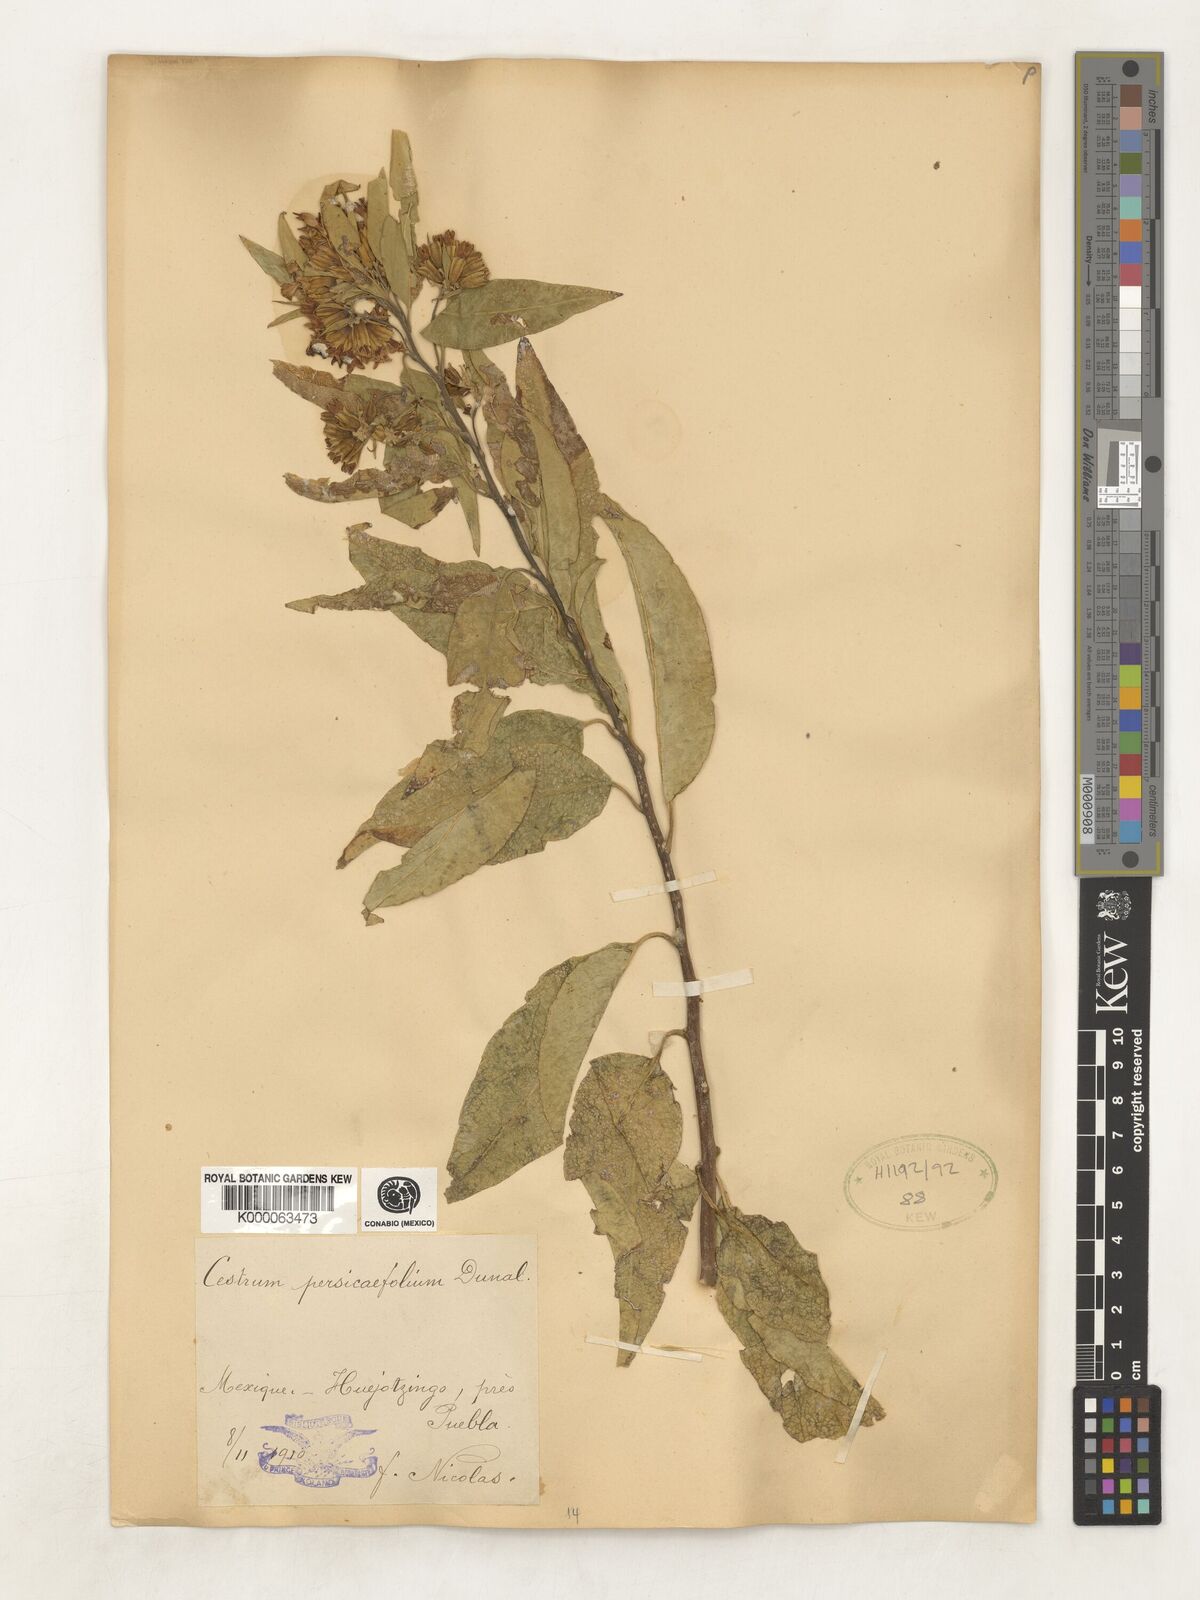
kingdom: Plantae
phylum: Tracheophyta
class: Magnoliopsida
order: Solanales
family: Solanaceae
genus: Cestrum
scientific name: Cestrum
